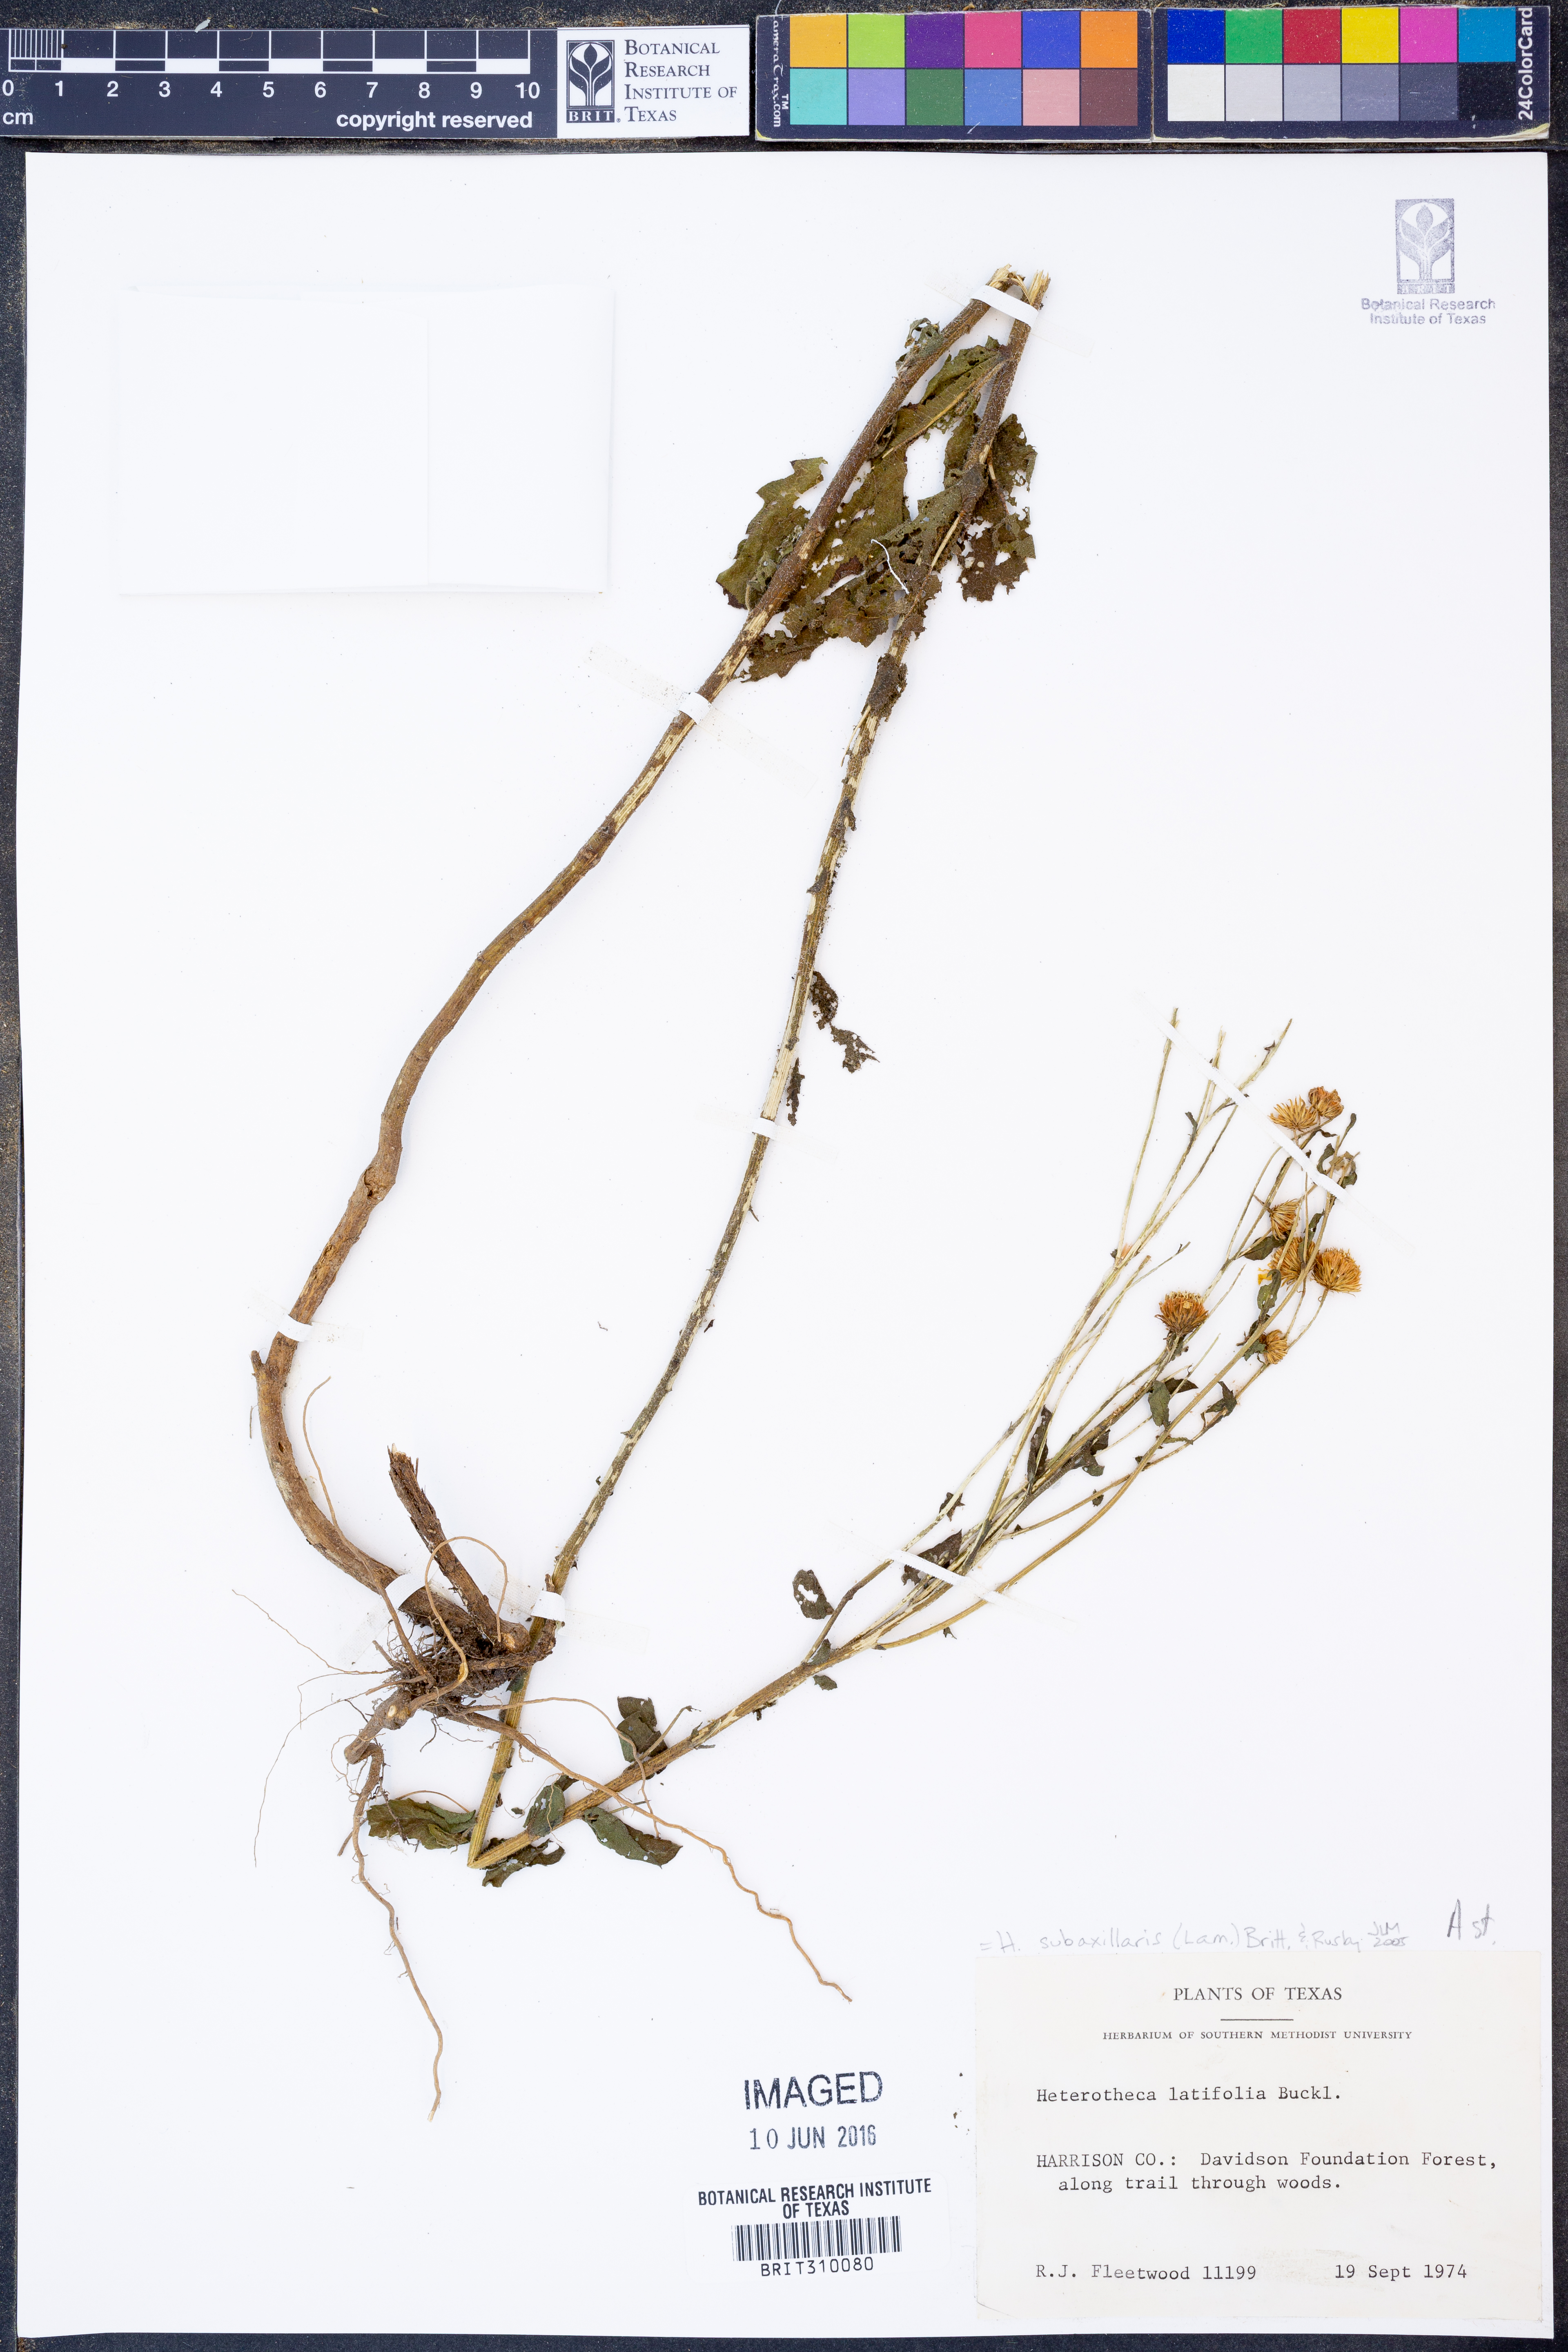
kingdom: Plantae
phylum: Tracheophyta
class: Magnoliopsida
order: Asterales
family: Asteraceae
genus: Heterotheca
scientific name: Heterotheca subaxillaris
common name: Camphorweed
